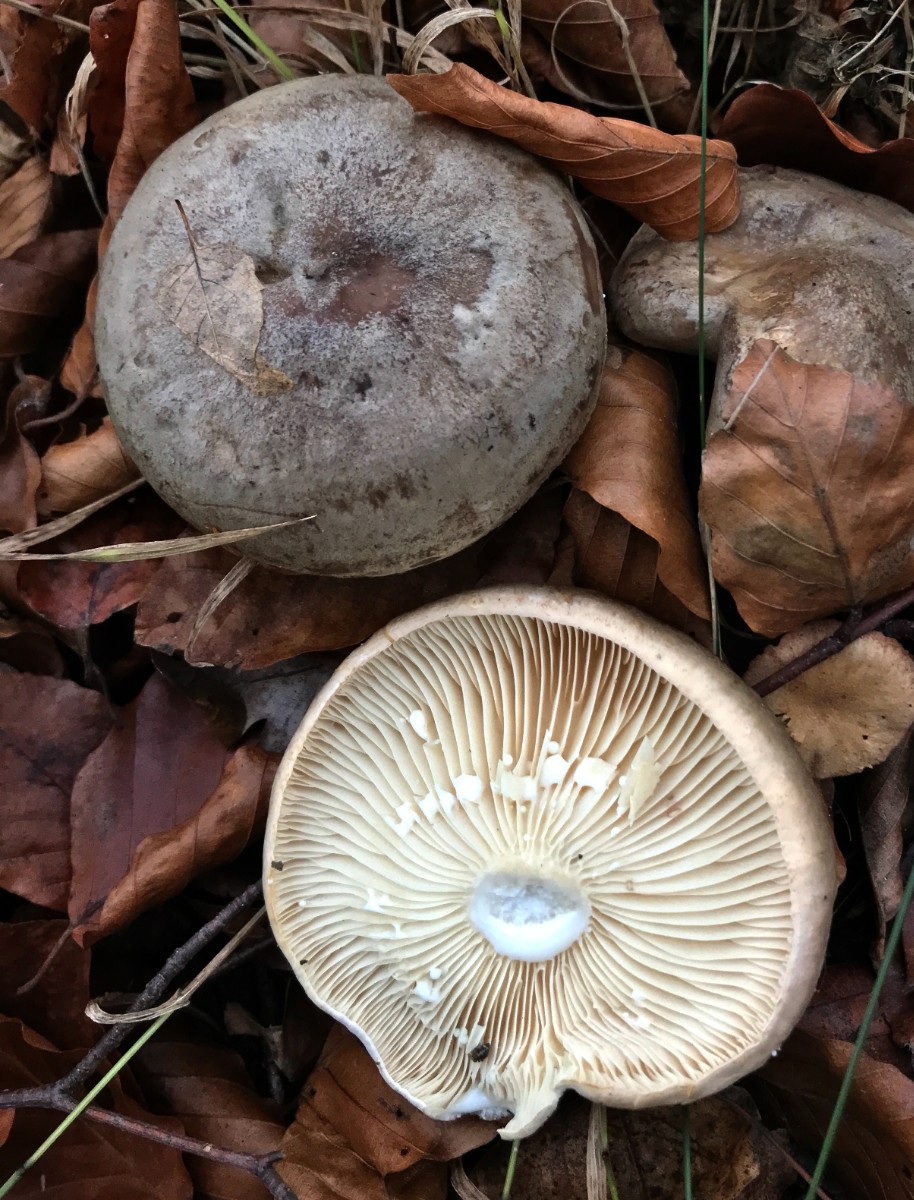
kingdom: Fungi
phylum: Basidiomycota
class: Agaricomycetes
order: Russulales
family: Russulaceae
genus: Lactarius
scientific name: Lactarius blennius
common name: dråbeplettet mælkehat
